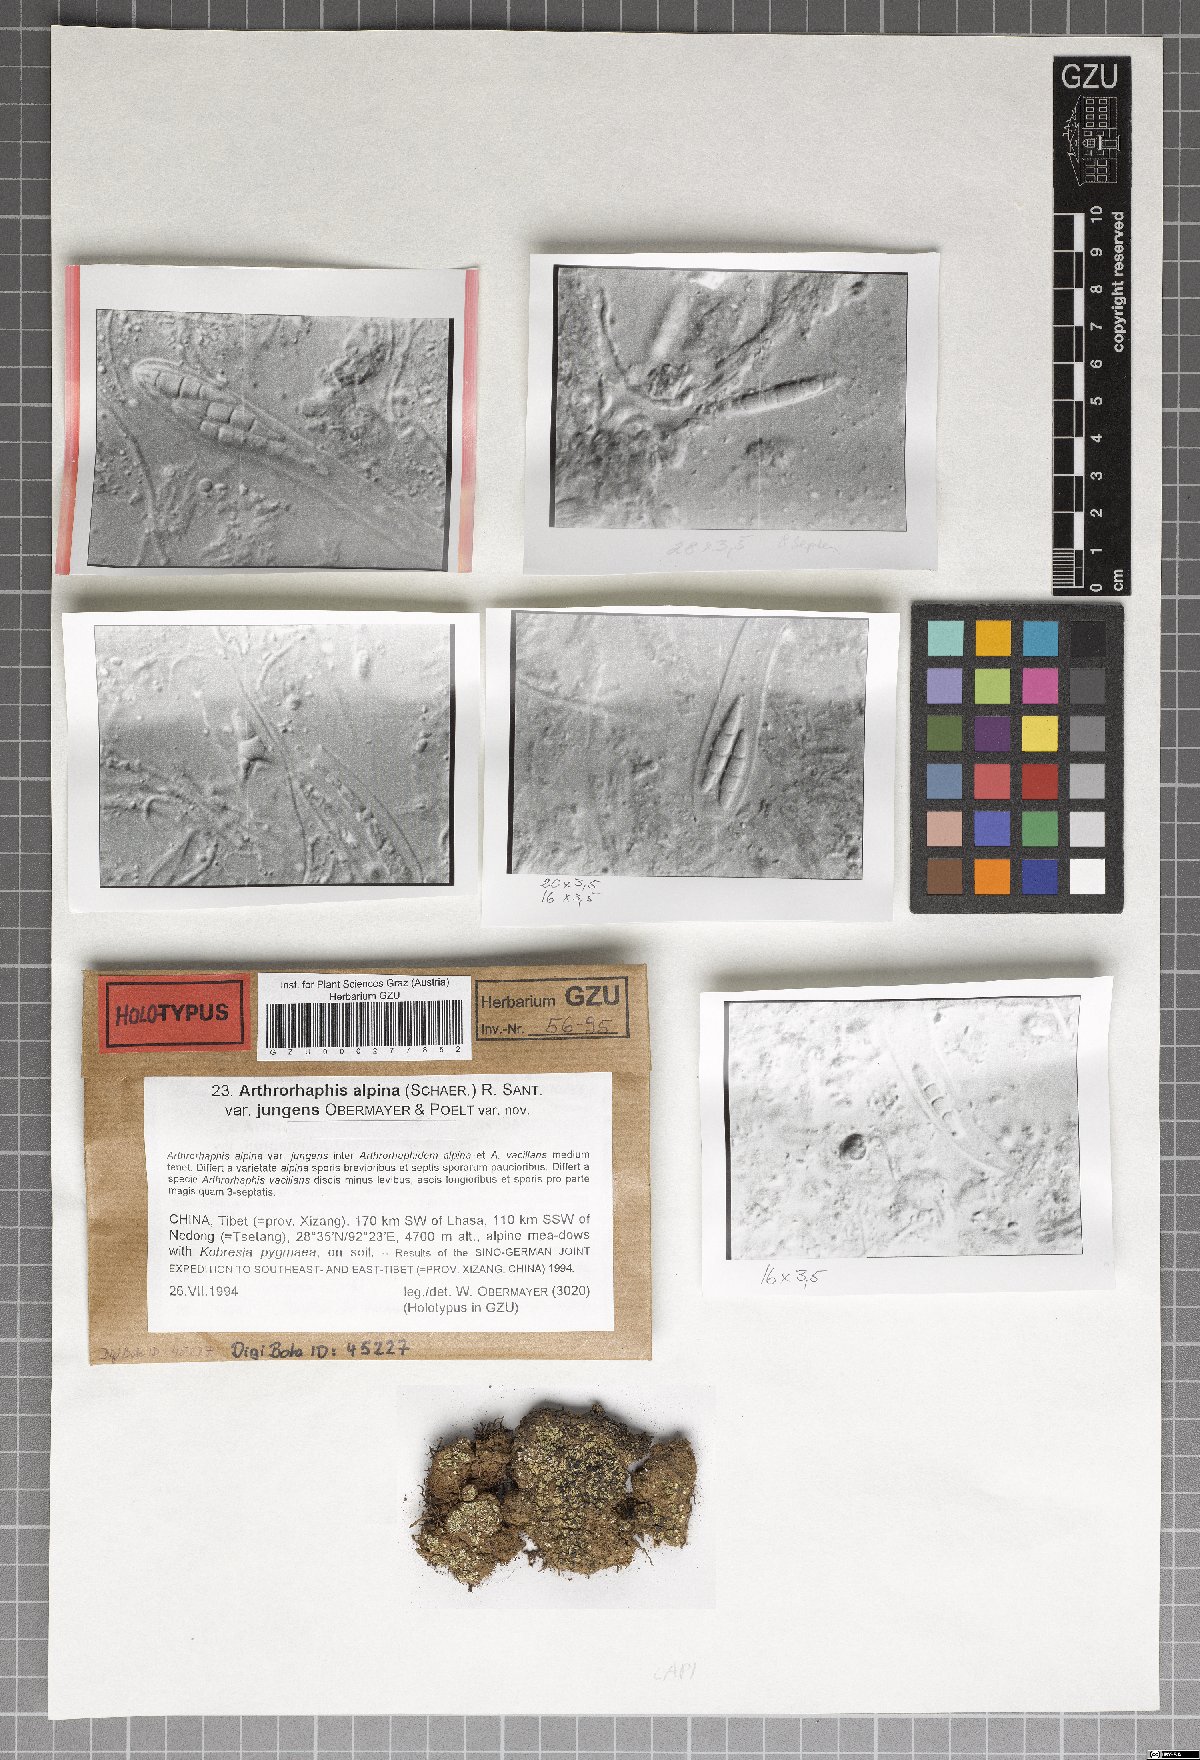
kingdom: Fungi
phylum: Ascomycota
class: Lecanoromycetes
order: Umbilicariales
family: Arthrorhaphidaceae
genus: Arthrorhaphis
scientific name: Arthrorhaphis alpina
